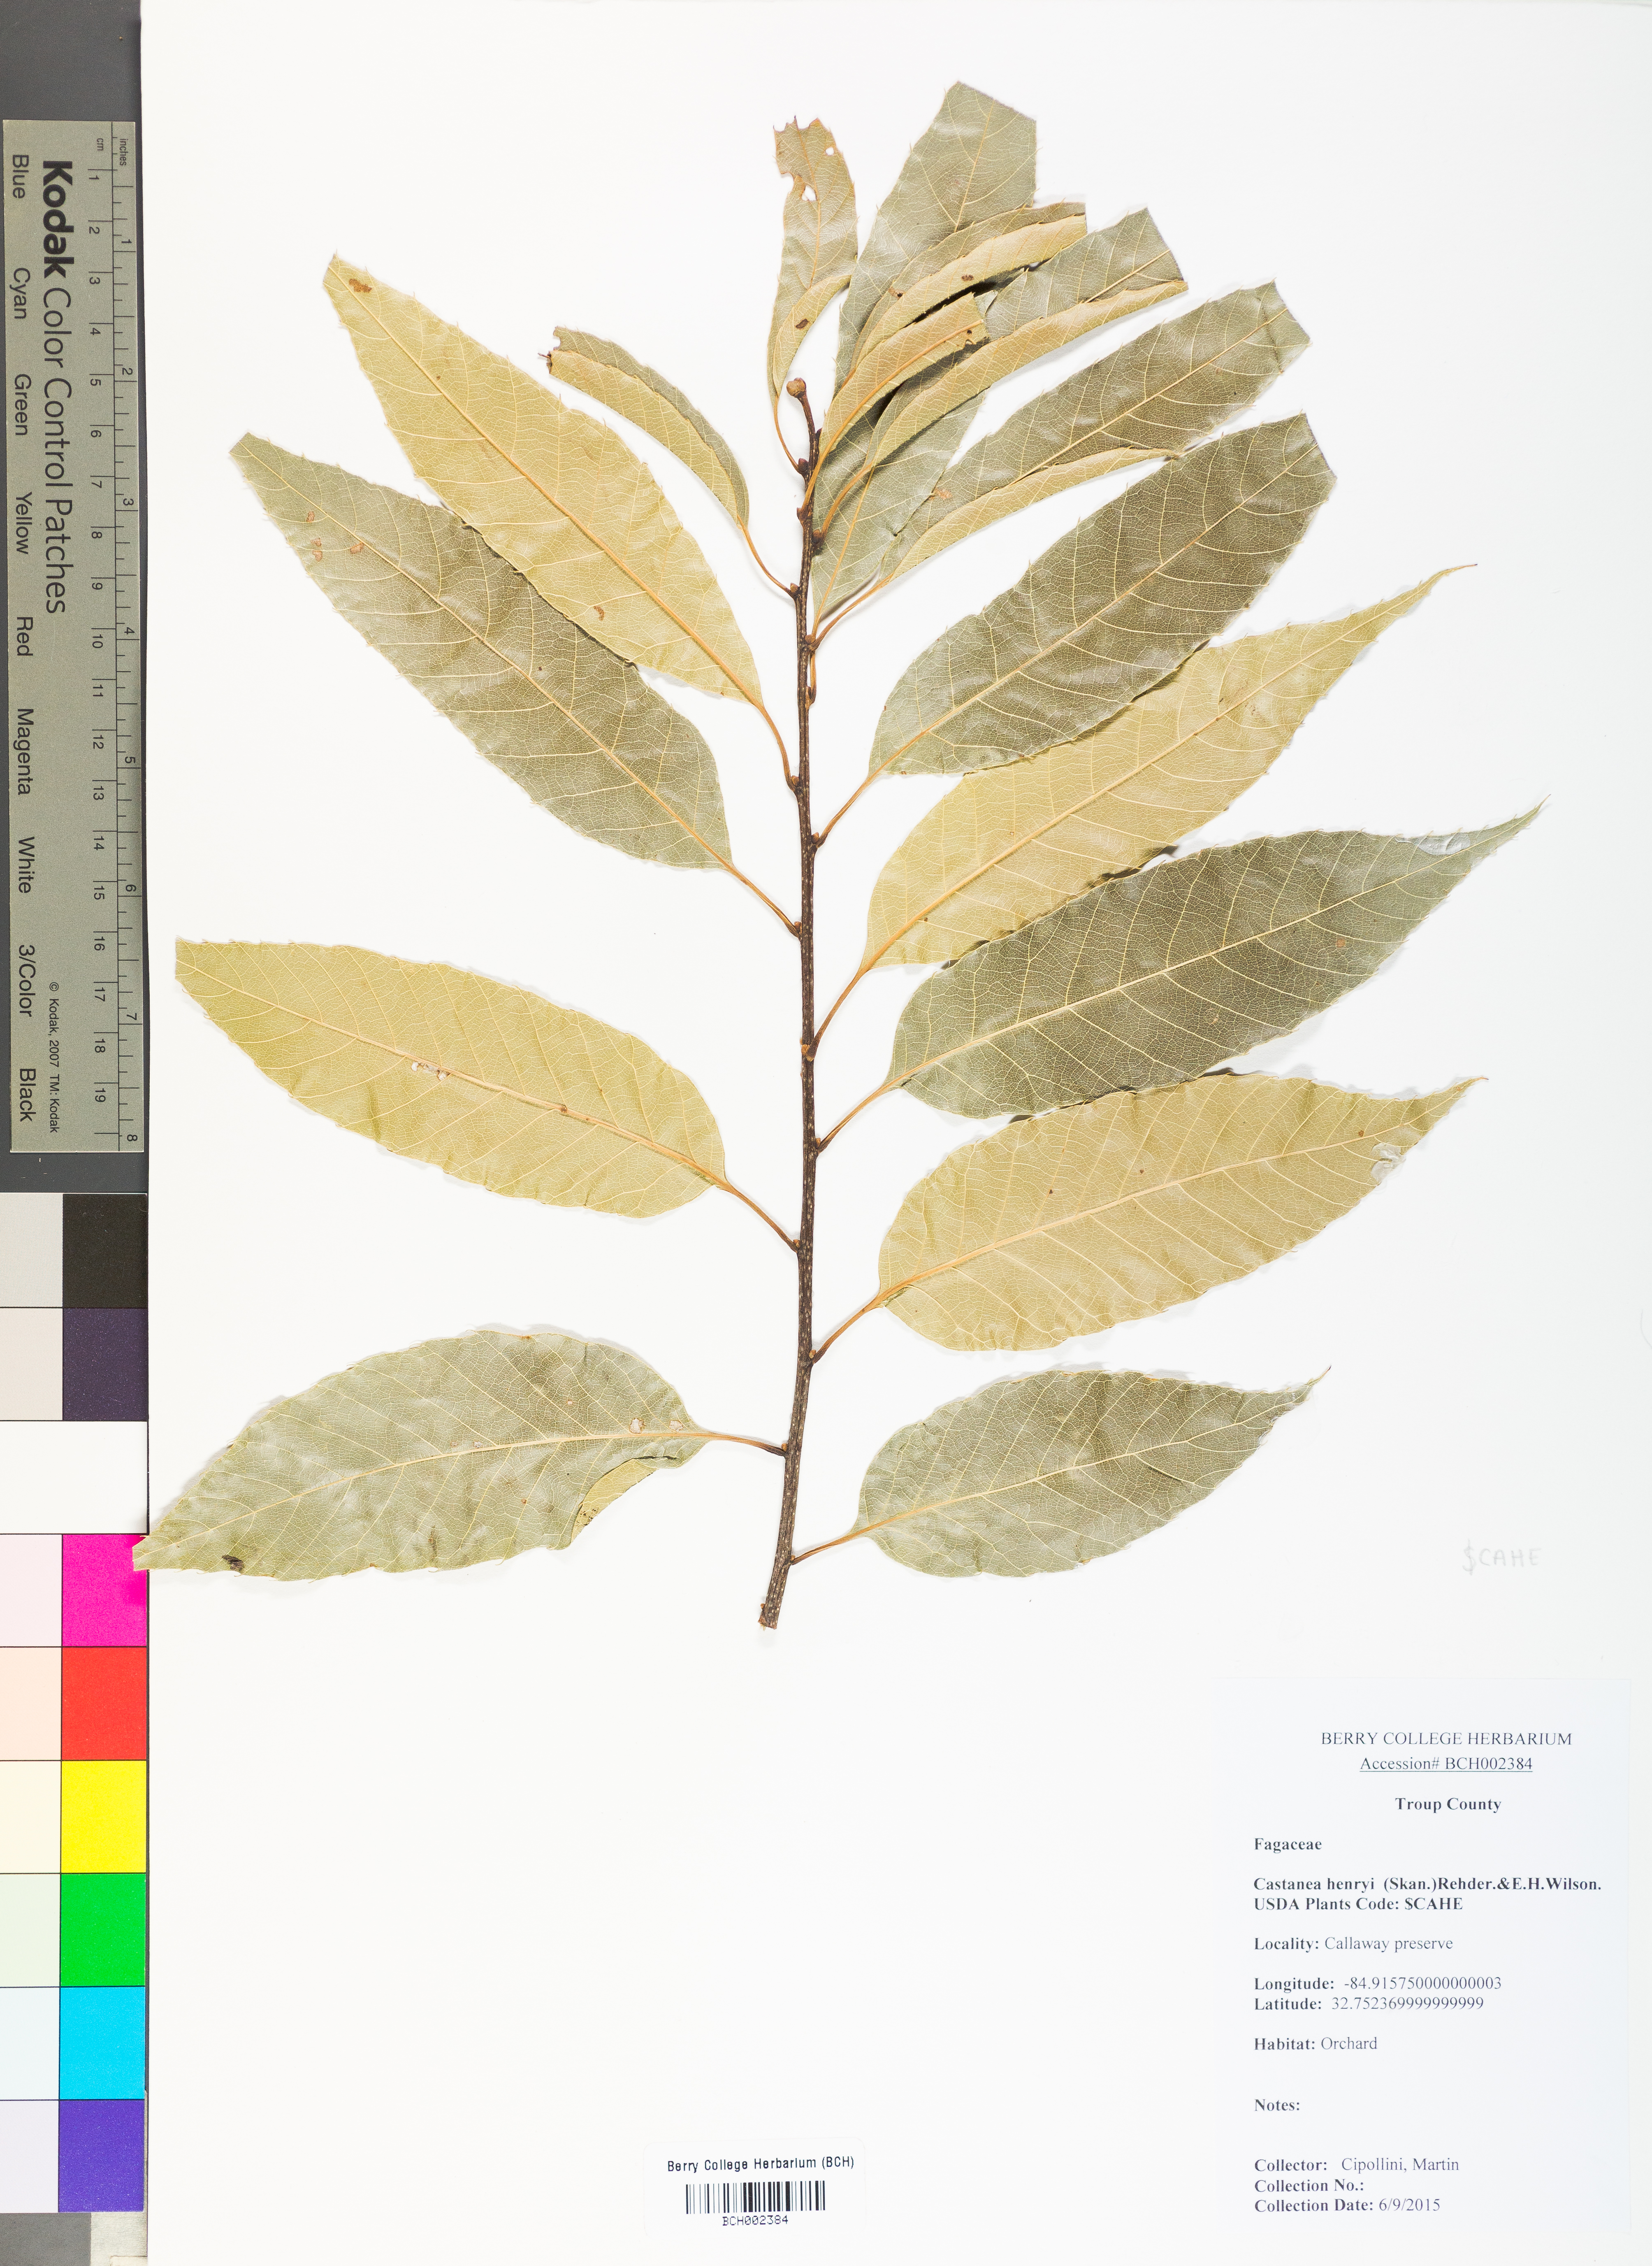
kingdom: Plantae
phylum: Tracheophyta
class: Magnoliopsida
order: Fagales
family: Fagaceae
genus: Castanea
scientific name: Castanea henryi
